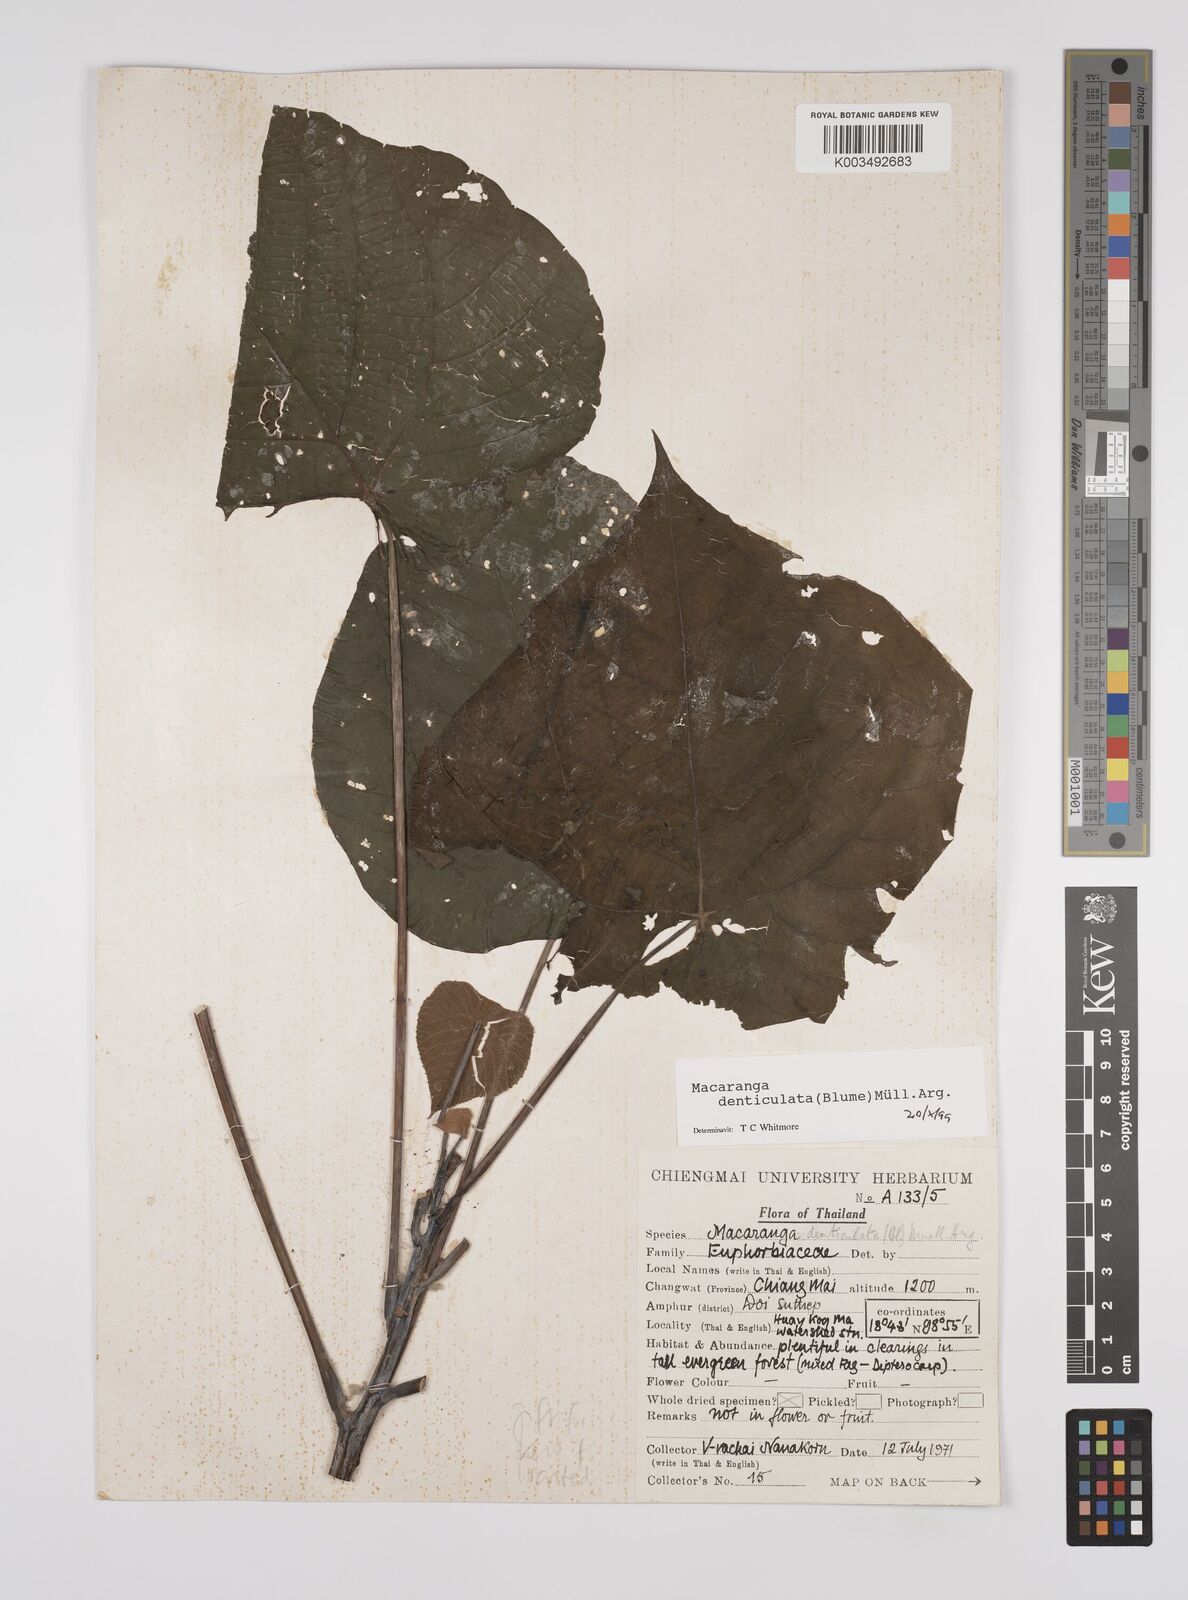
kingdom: Plantae
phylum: Tracheophyta
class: Magnoliopsida
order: Malpighiales
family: Euphorbiaceae
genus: Macaranga
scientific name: Macaranga denticulata
